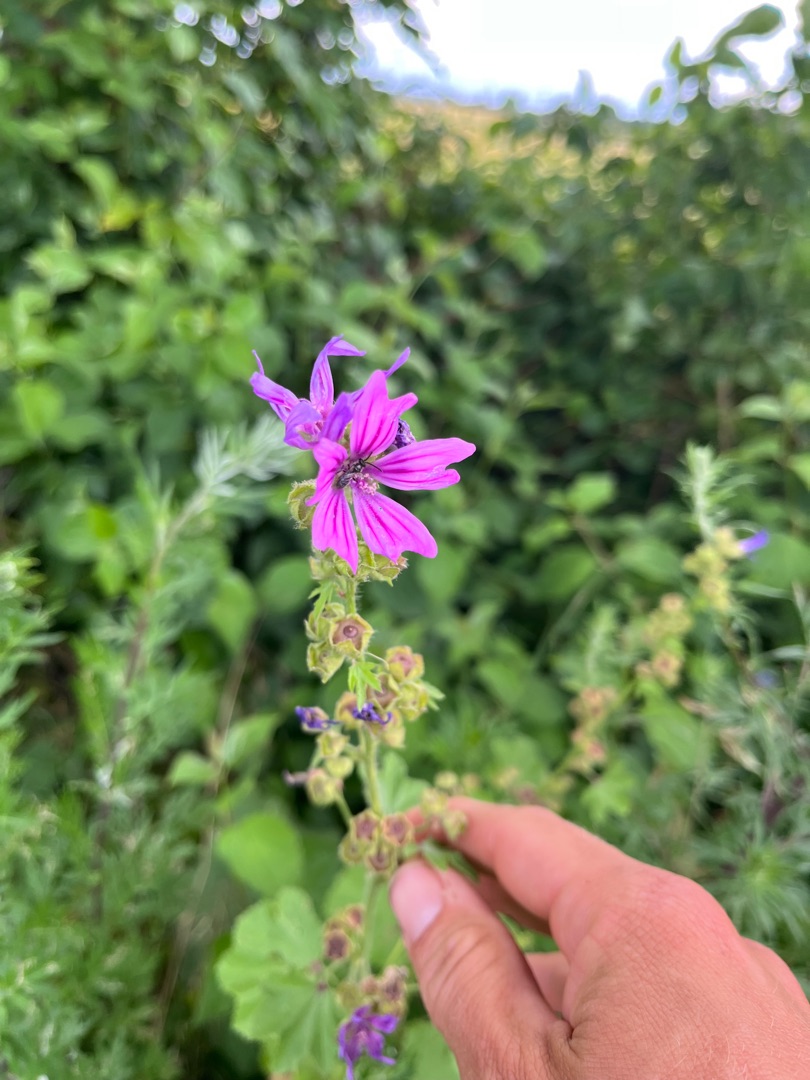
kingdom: Plantae
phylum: Tracheophyta
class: Magnoliopsida
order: Malvales
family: Malvaceae
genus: Malva
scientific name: Malva sylvestris
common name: Almindelig katost
